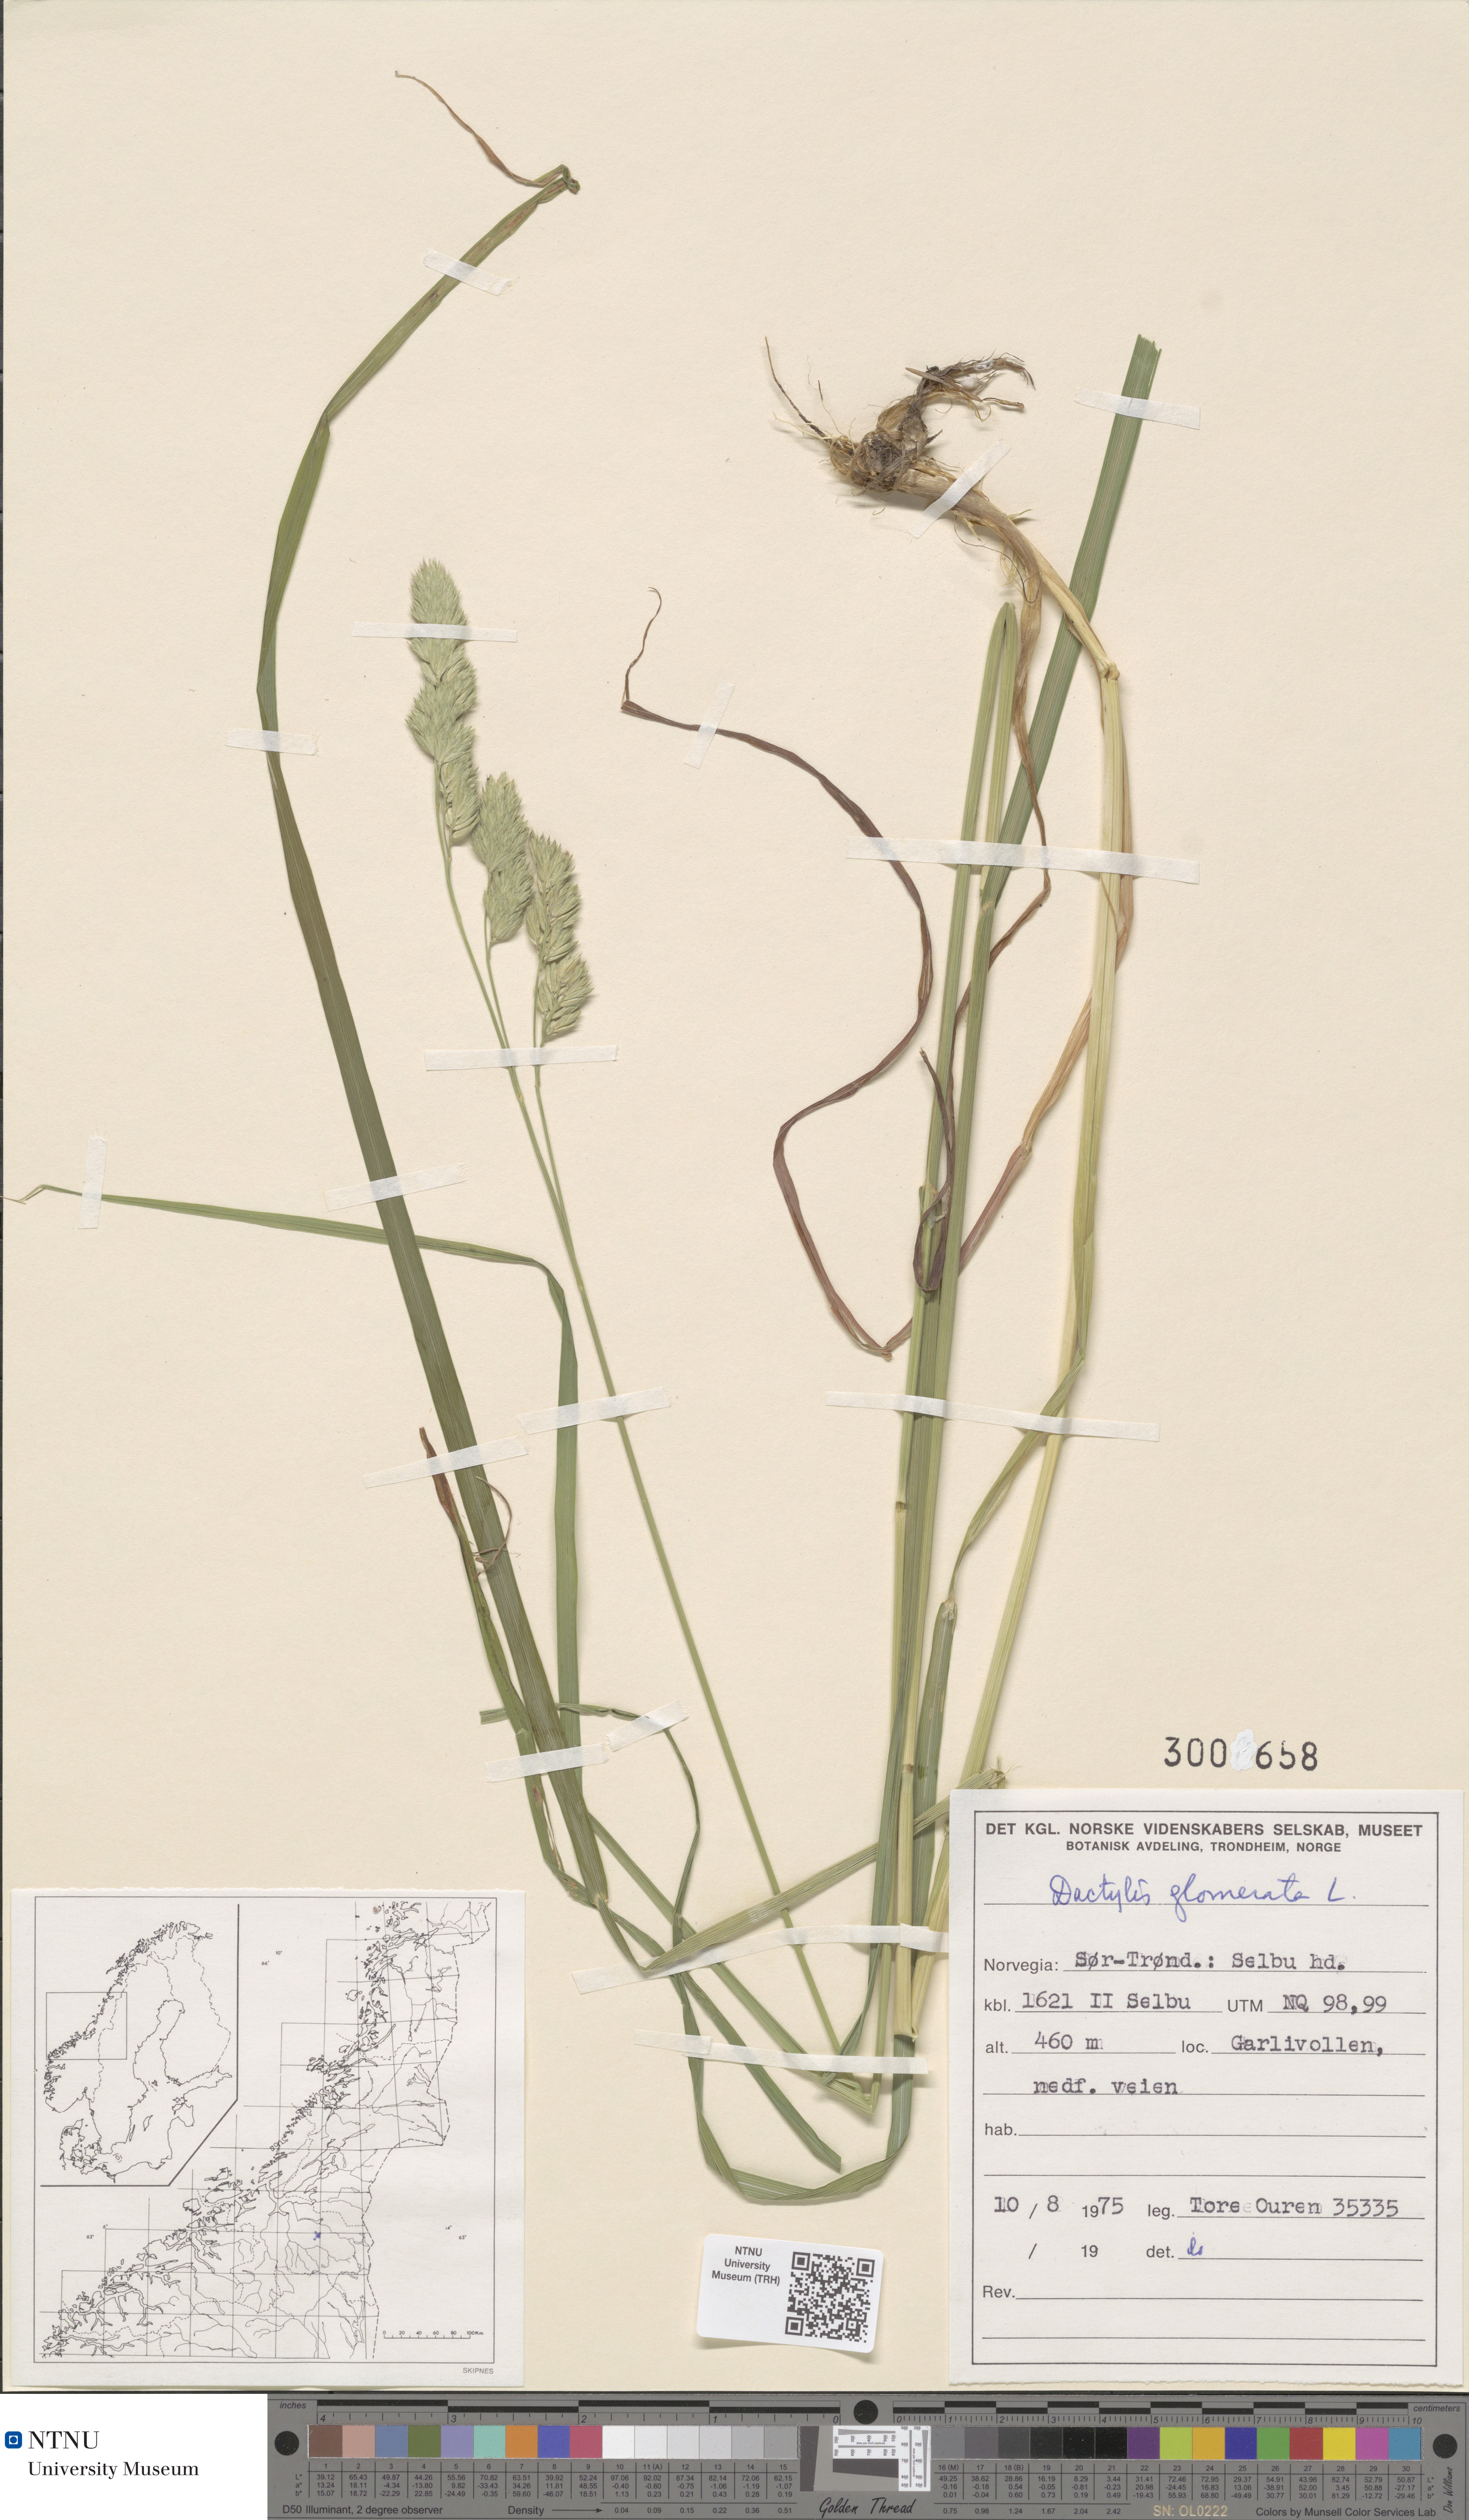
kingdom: Plantae
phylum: Tracheophyta
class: Liliopsida
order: Poales
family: Poaceae
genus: Dactylis
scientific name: Dactylis glomerata
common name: Orchardgrass
